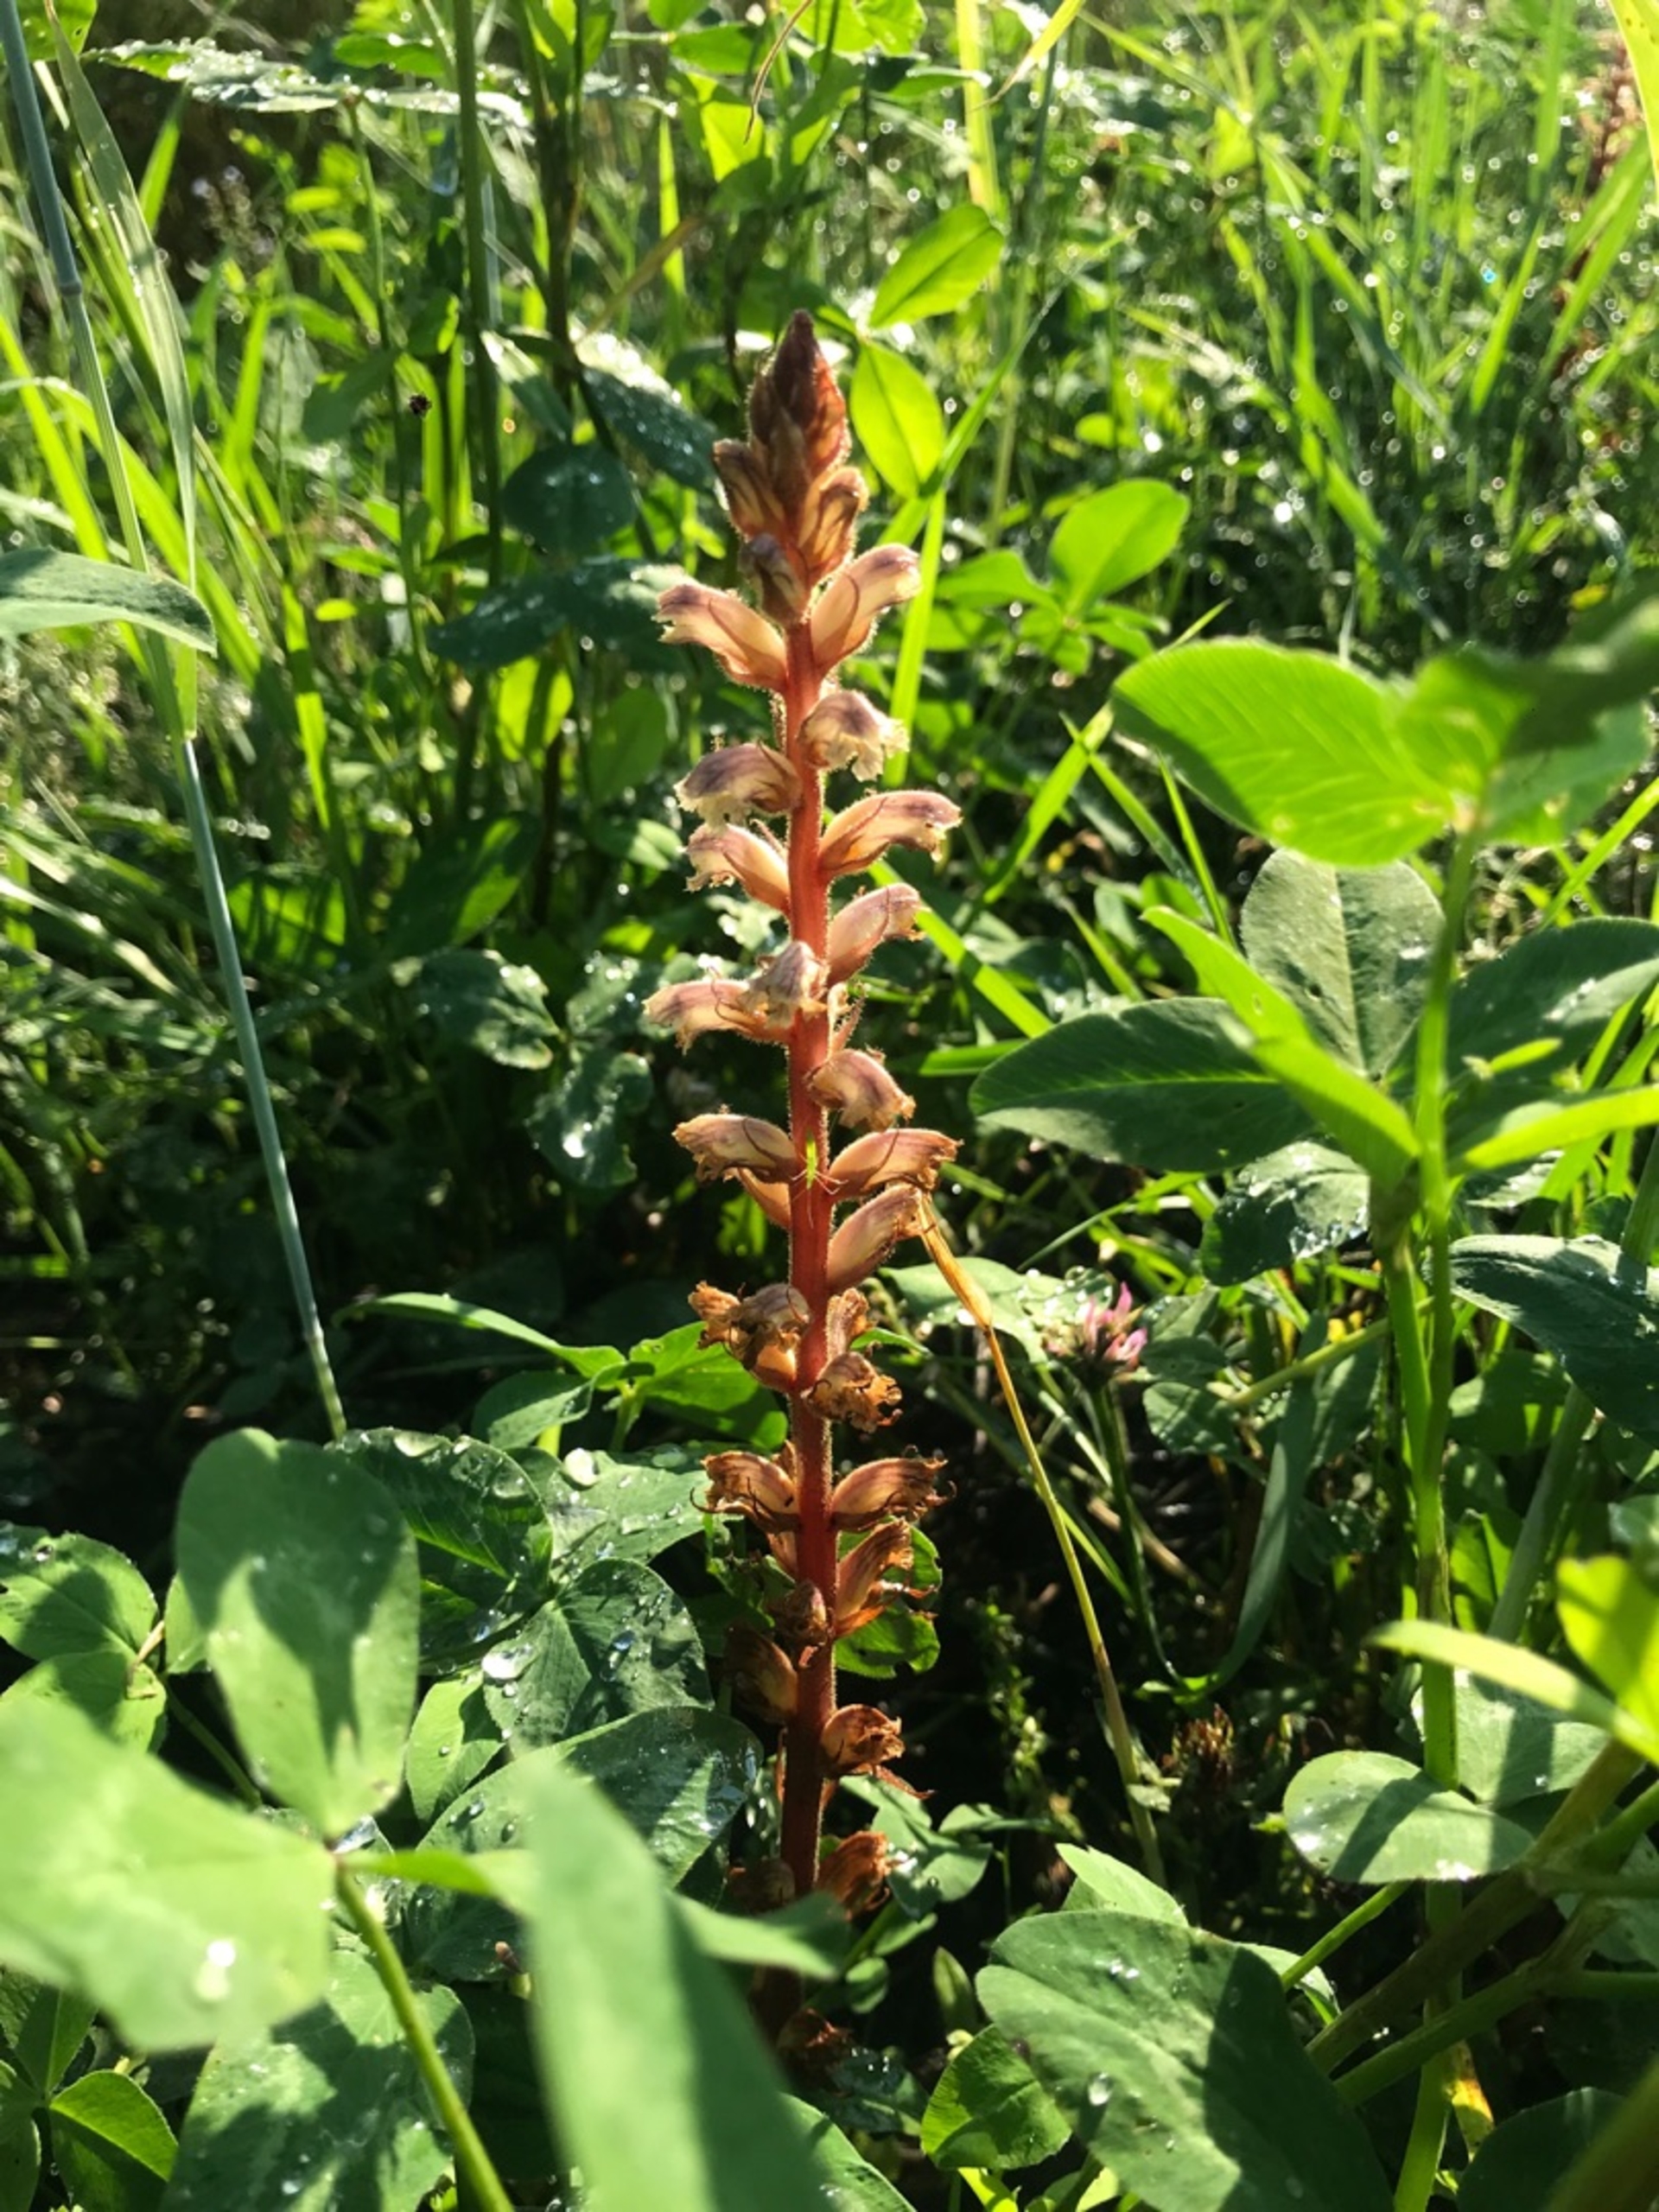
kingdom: Plantae
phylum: Tracheophyta
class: Magnoliopsida
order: Lamiales
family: Orobanchaceae
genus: Orobanche
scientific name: Orobanche minor
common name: Kløver-gyvelkvæler
